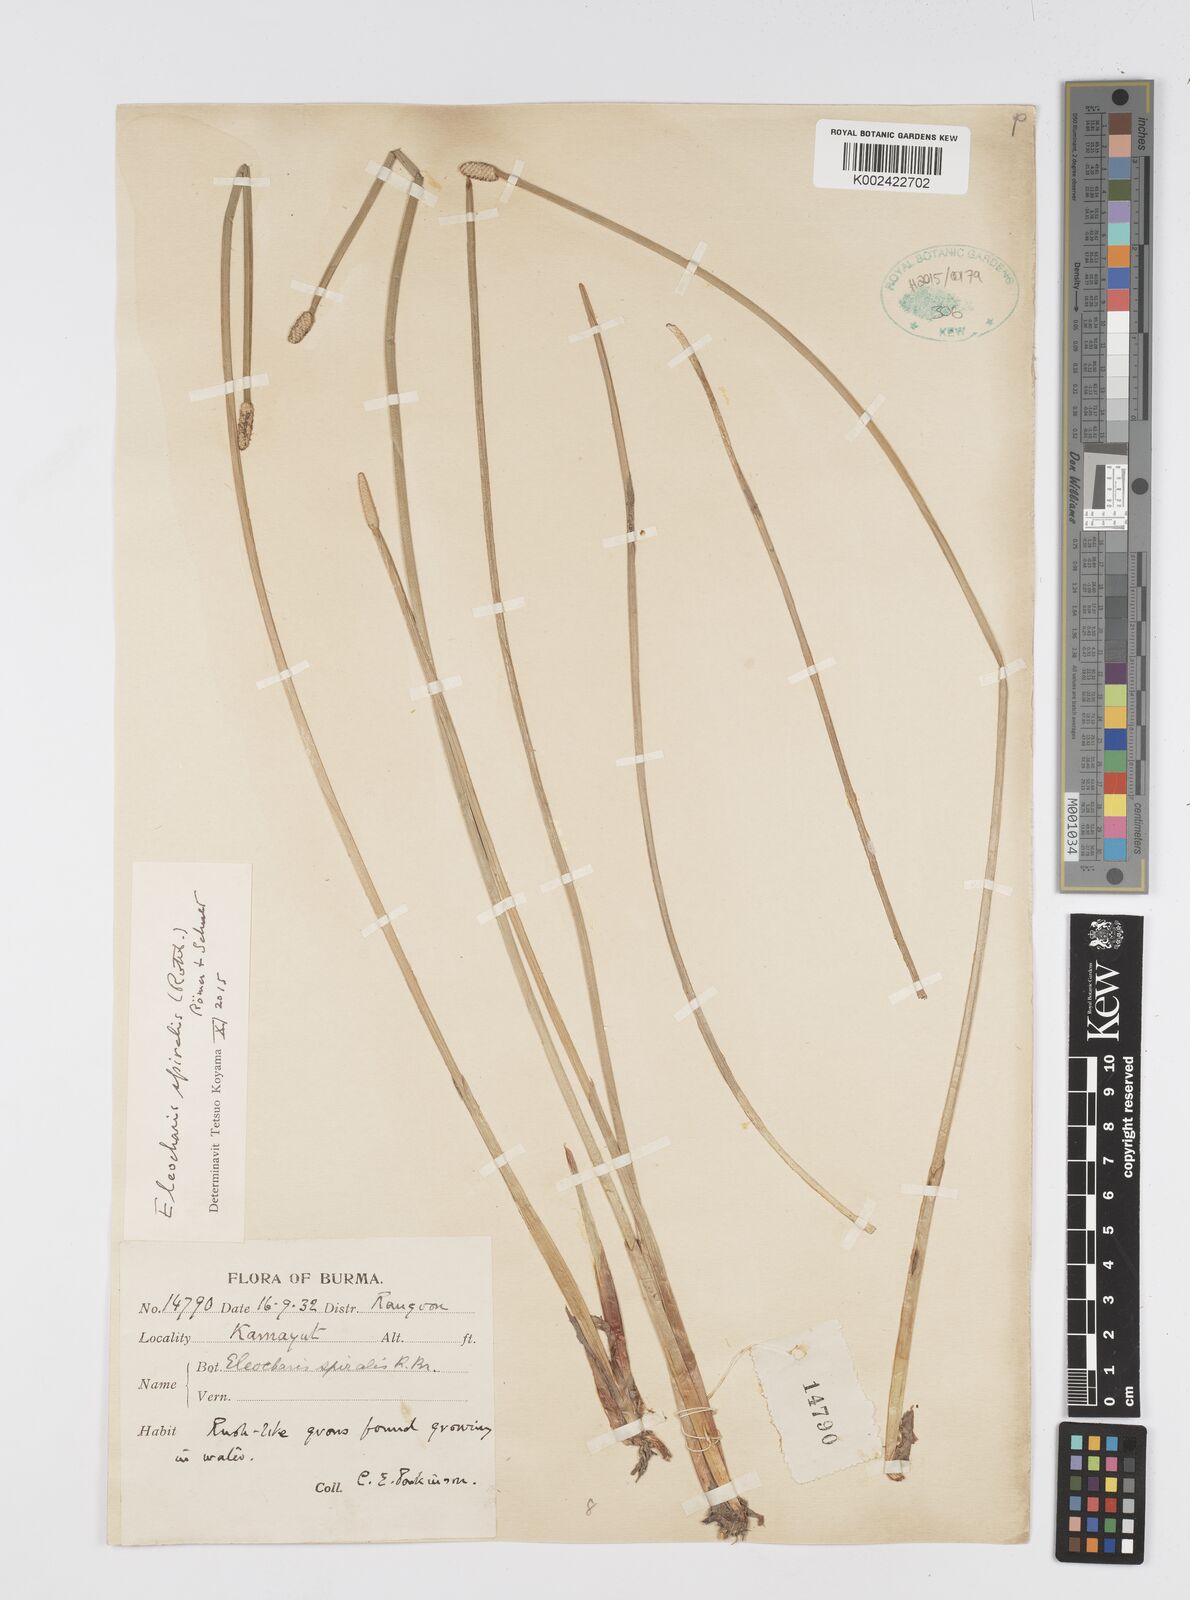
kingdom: Plantae
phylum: Tracheophyta
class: Liliopsida
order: Poales
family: Cyperaceae
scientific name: Cyperaceae
